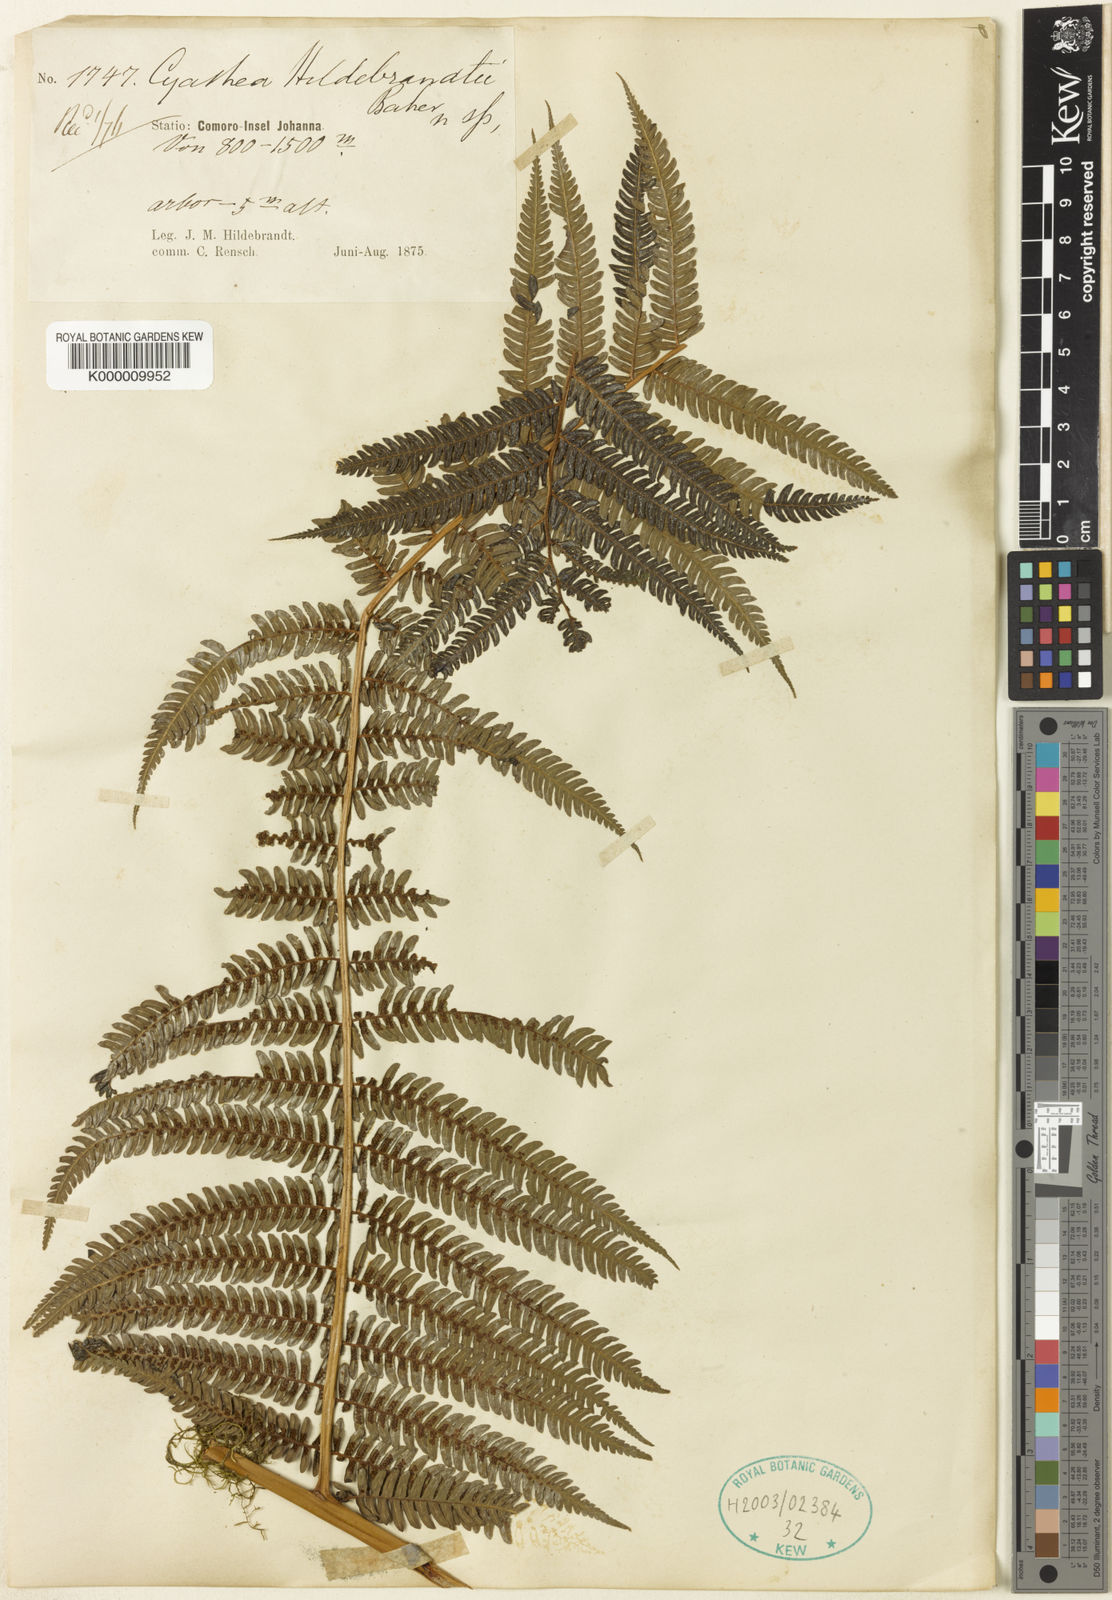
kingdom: Plantae
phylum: Tracheophyta
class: Polypodiopsida
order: Cyatheales
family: Cyatheaceae
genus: Gymnosphaera
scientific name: Gymnosphaera boivinii
